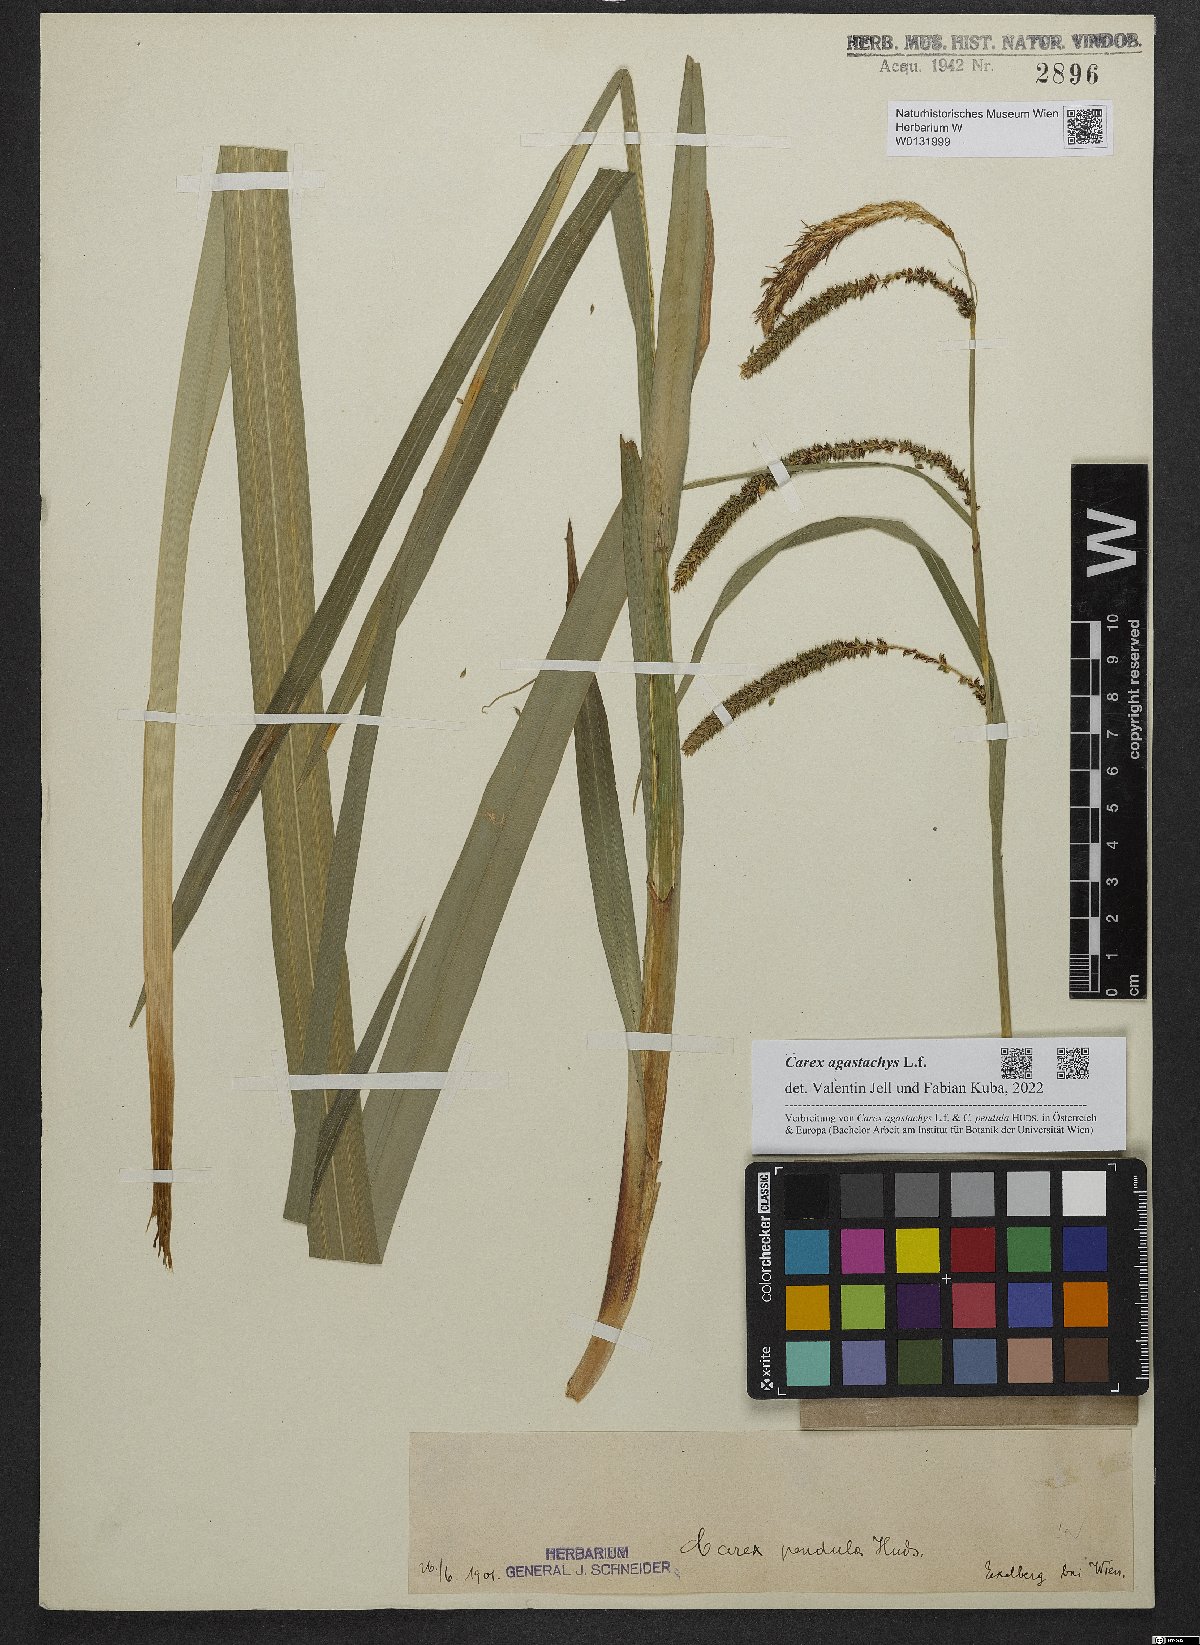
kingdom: Plantae
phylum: Tracheophyta
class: Liliopsida
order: Poales
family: Cyperaceae
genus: Carex
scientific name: Carex agastachys
